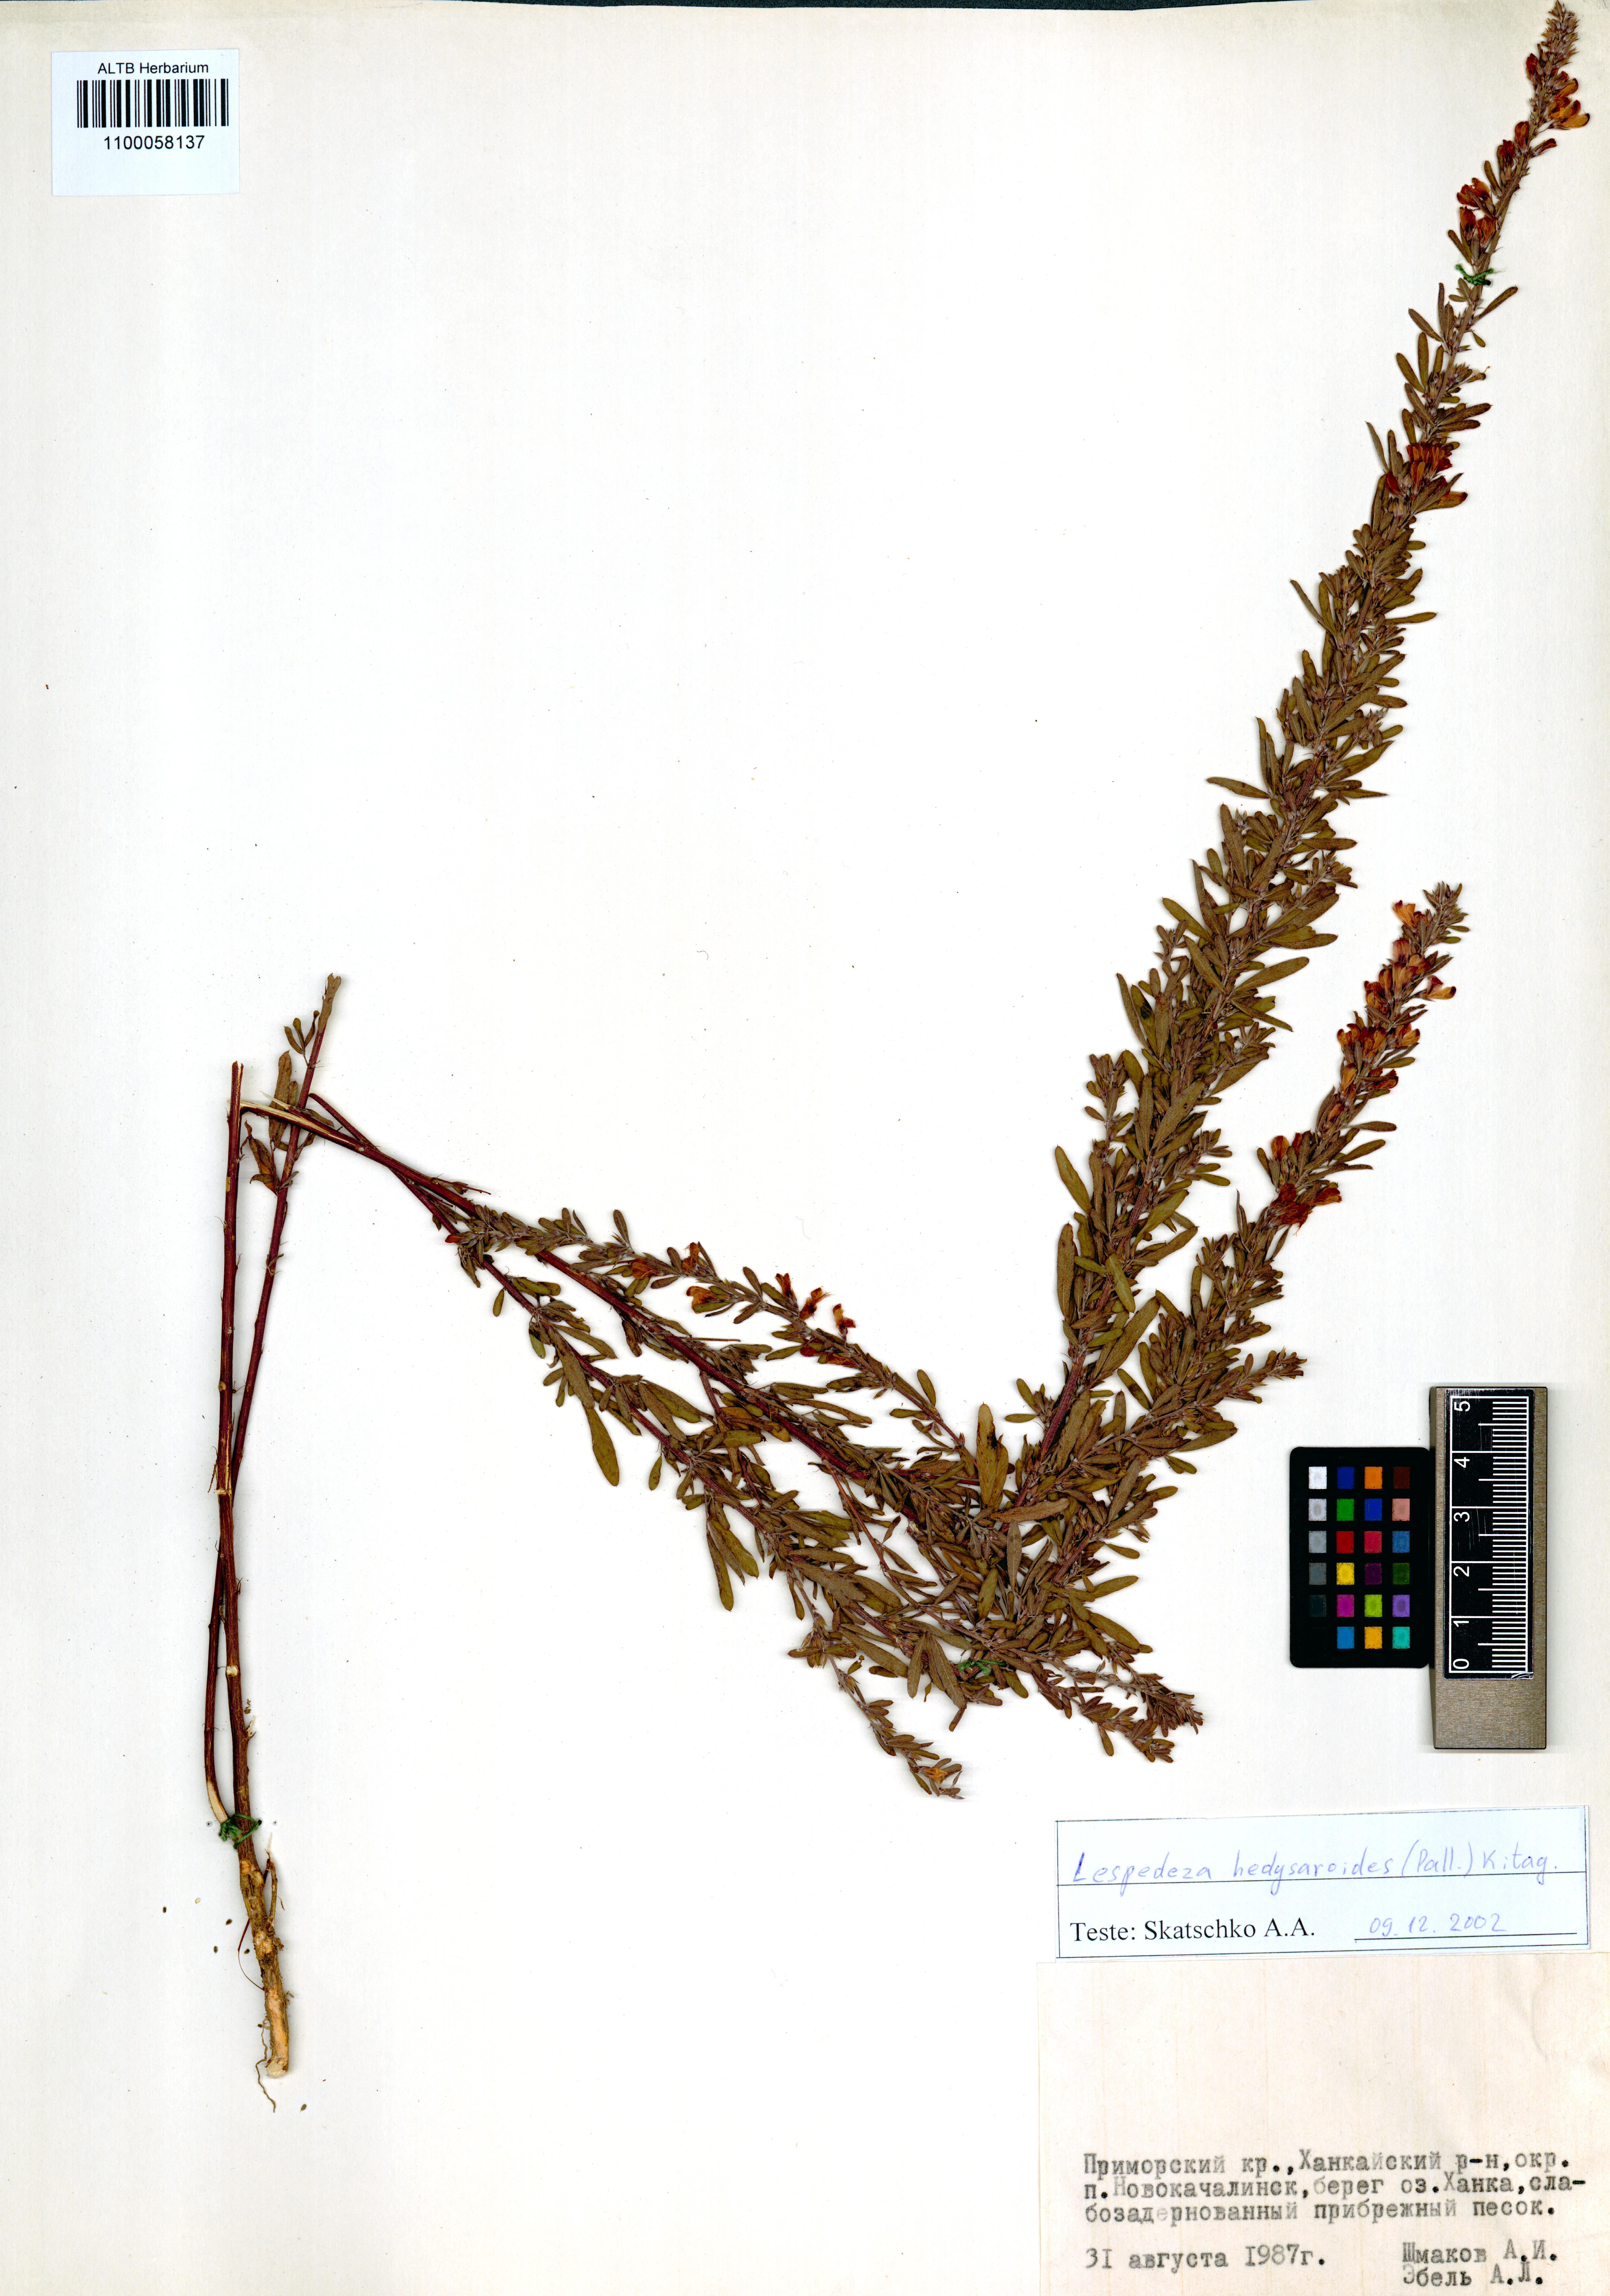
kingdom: Plantae
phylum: Tracheophyta
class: Magnoliopsida
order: Fabales
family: Fabaceae
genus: Lespedeza
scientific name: Lespedeza juncea
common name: Siberian lespedeza
